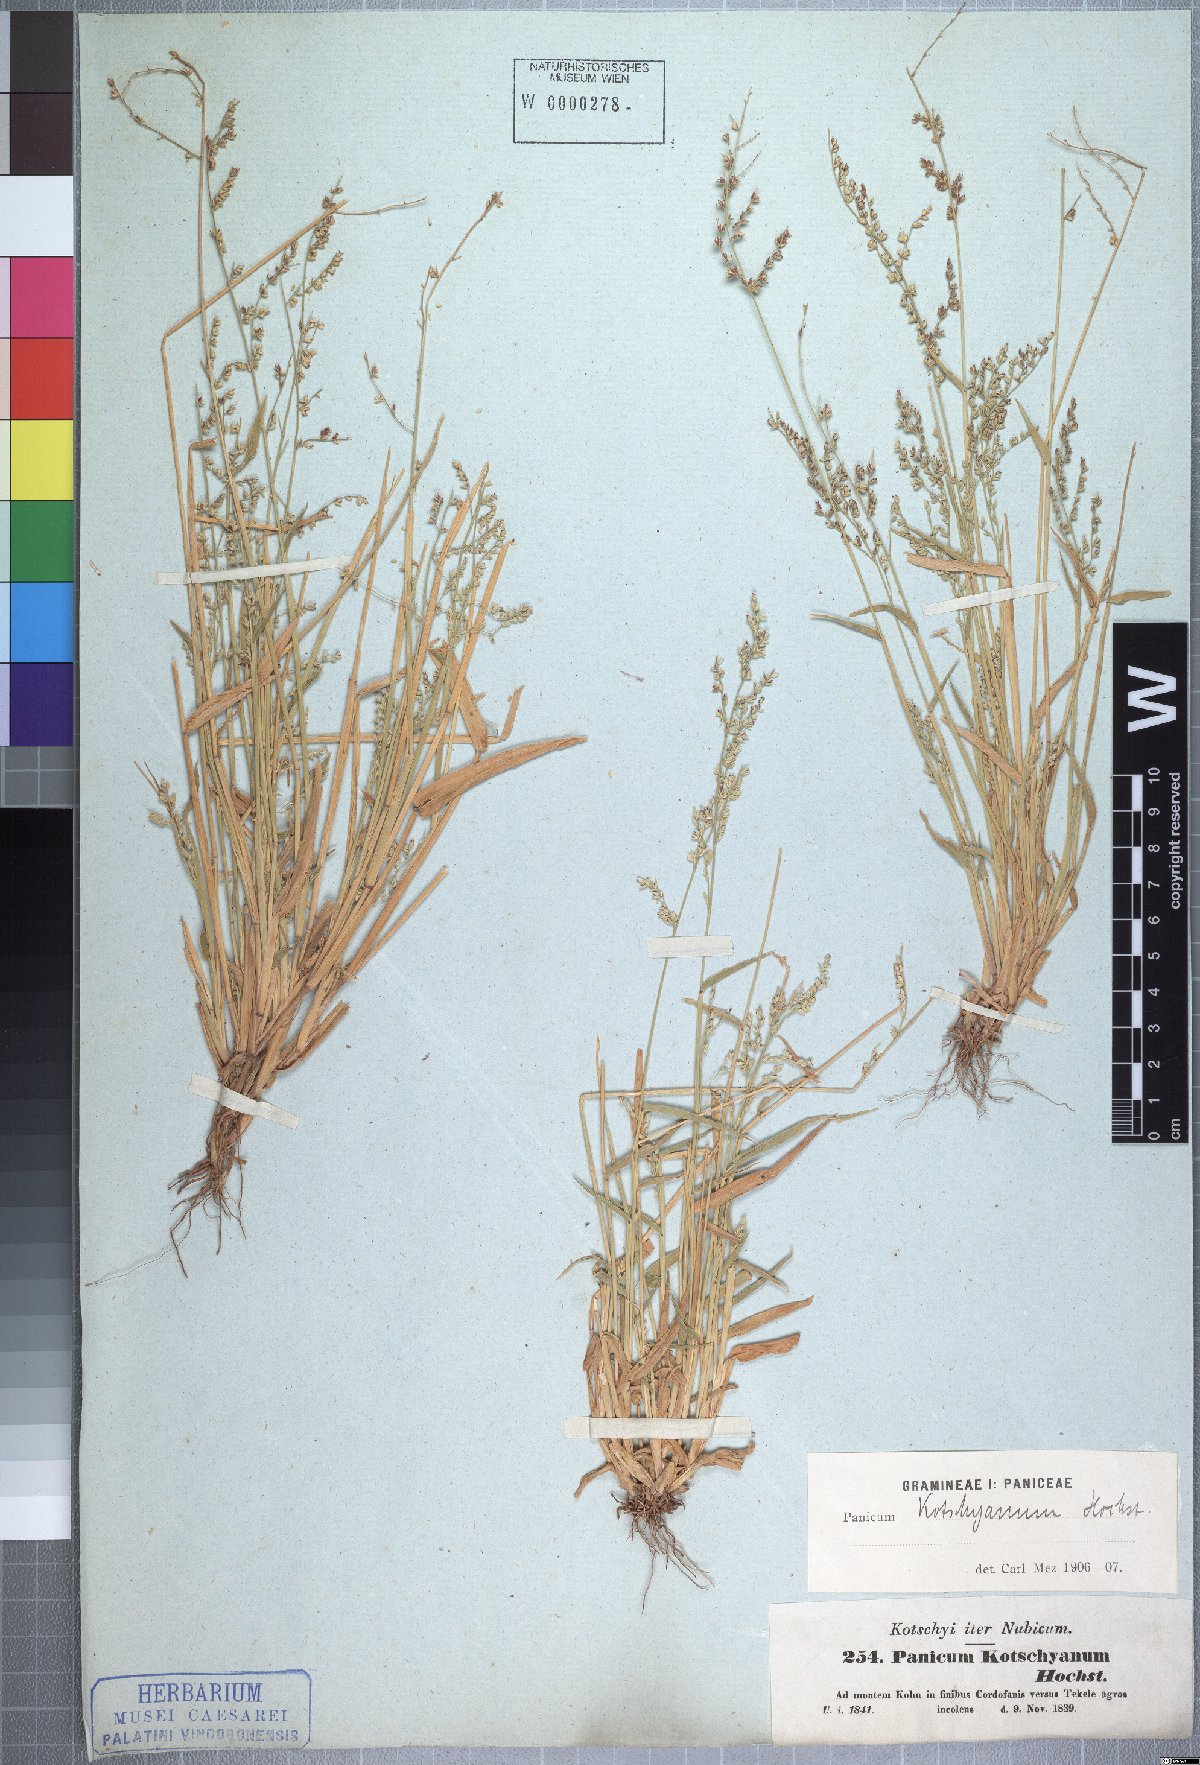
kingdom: Plantae
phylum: Tracheophyta
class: Liliopsida
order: Poales
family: Poaceae
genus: Urochloa
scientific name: Urochloa comata
